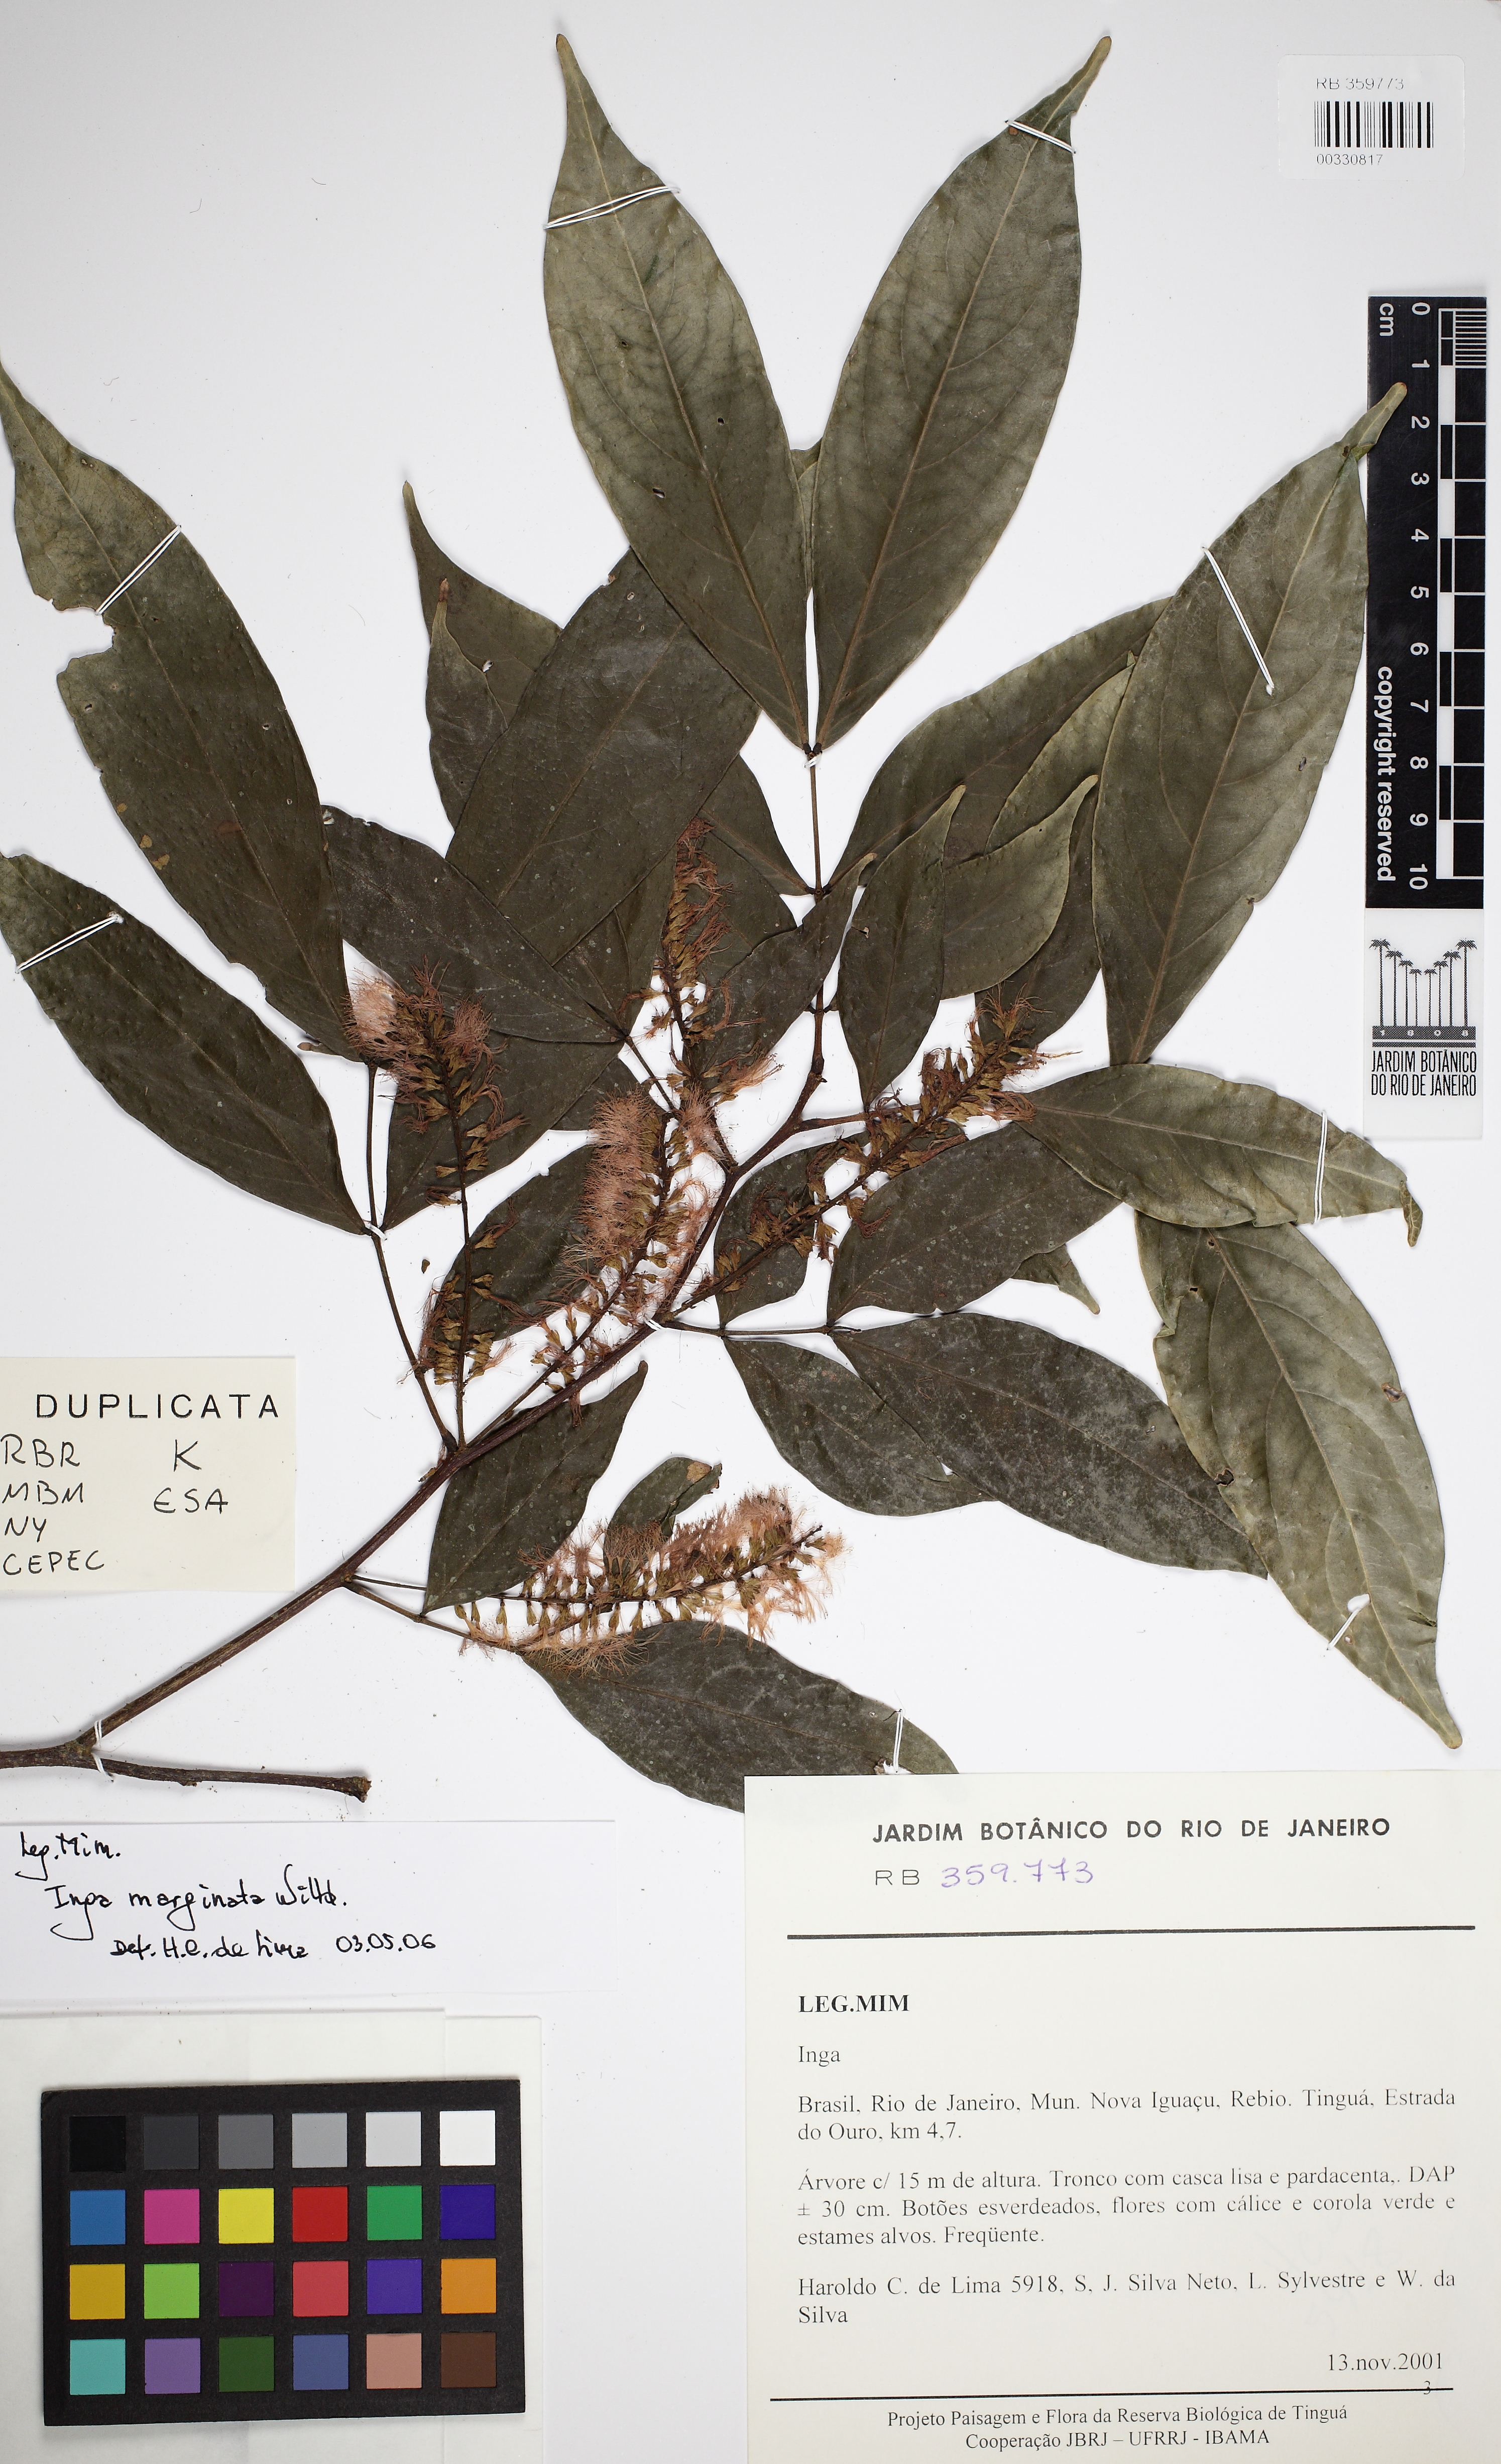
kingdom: Plantae
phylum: Tracheophyta
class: Magnoliopsida
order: Fabales
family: Fabaceae
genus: Inga
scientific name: Inga marginata
